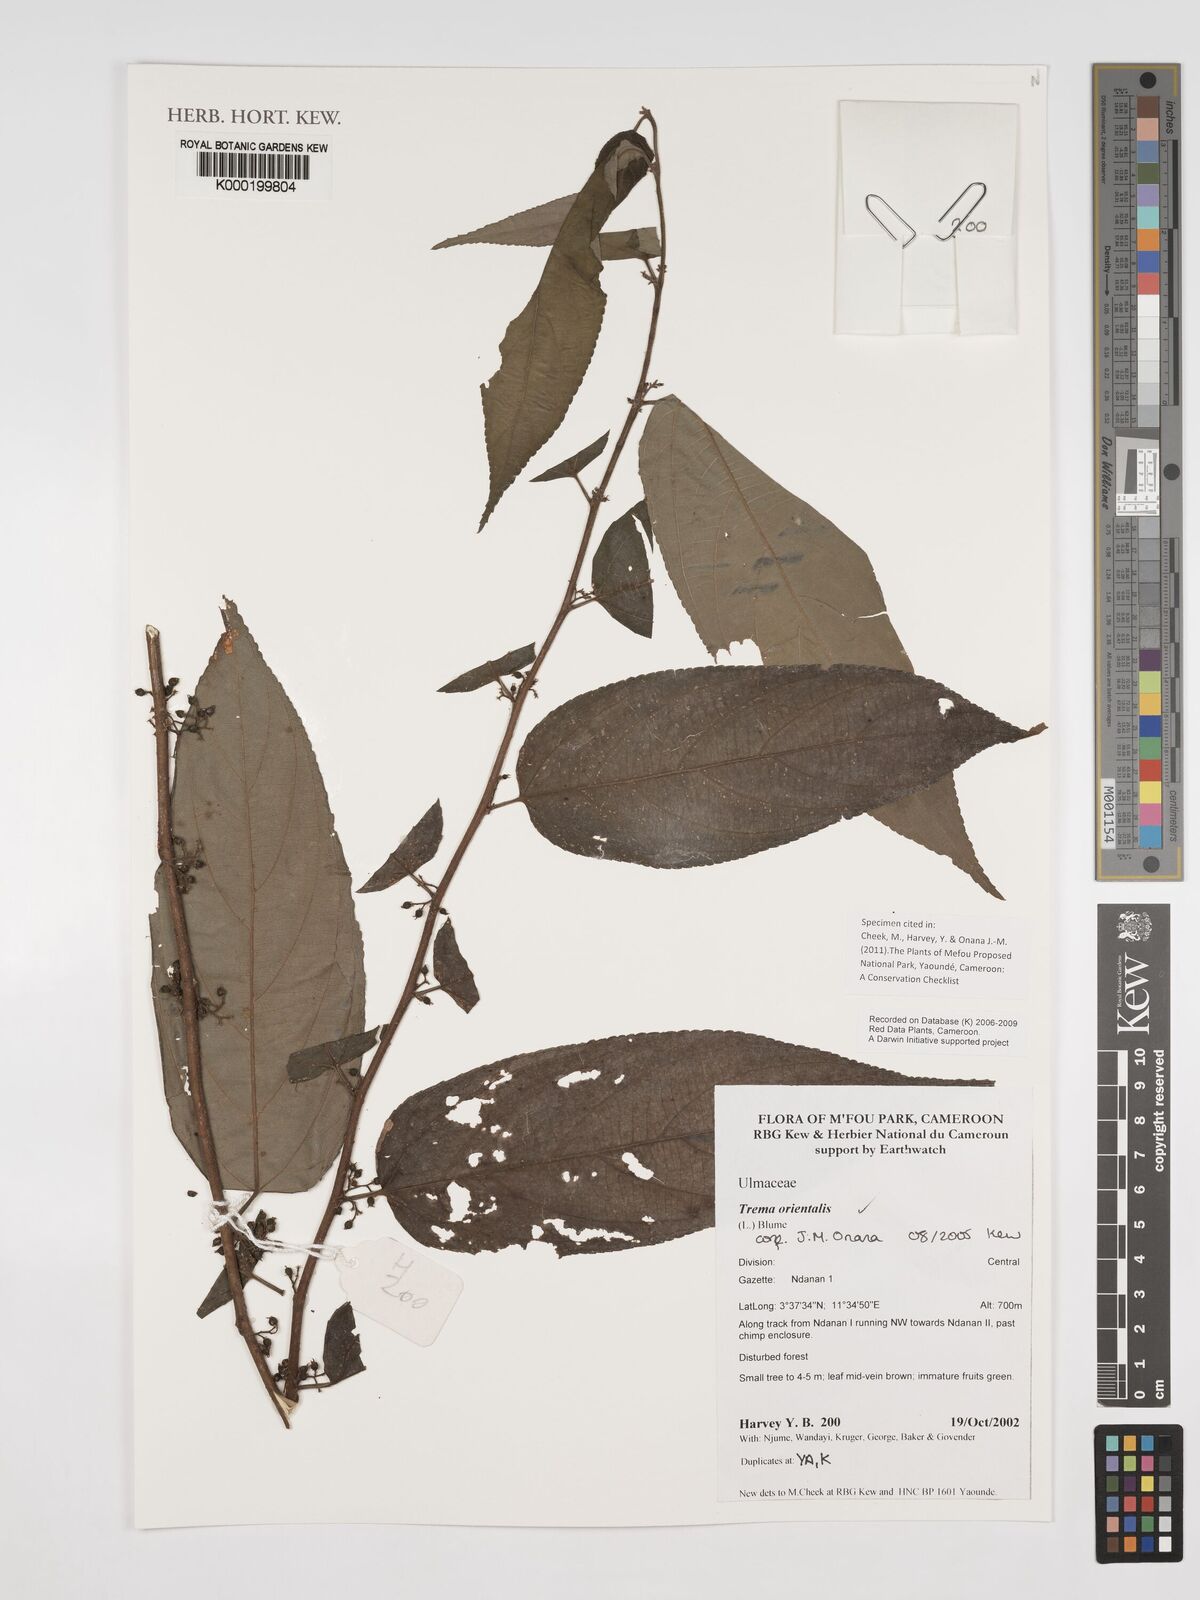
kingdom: Plantae
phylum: Tracheophyta
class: Magnoliopsida
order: Rosales
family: Cannabaceae
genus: Trema
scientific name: Trema
